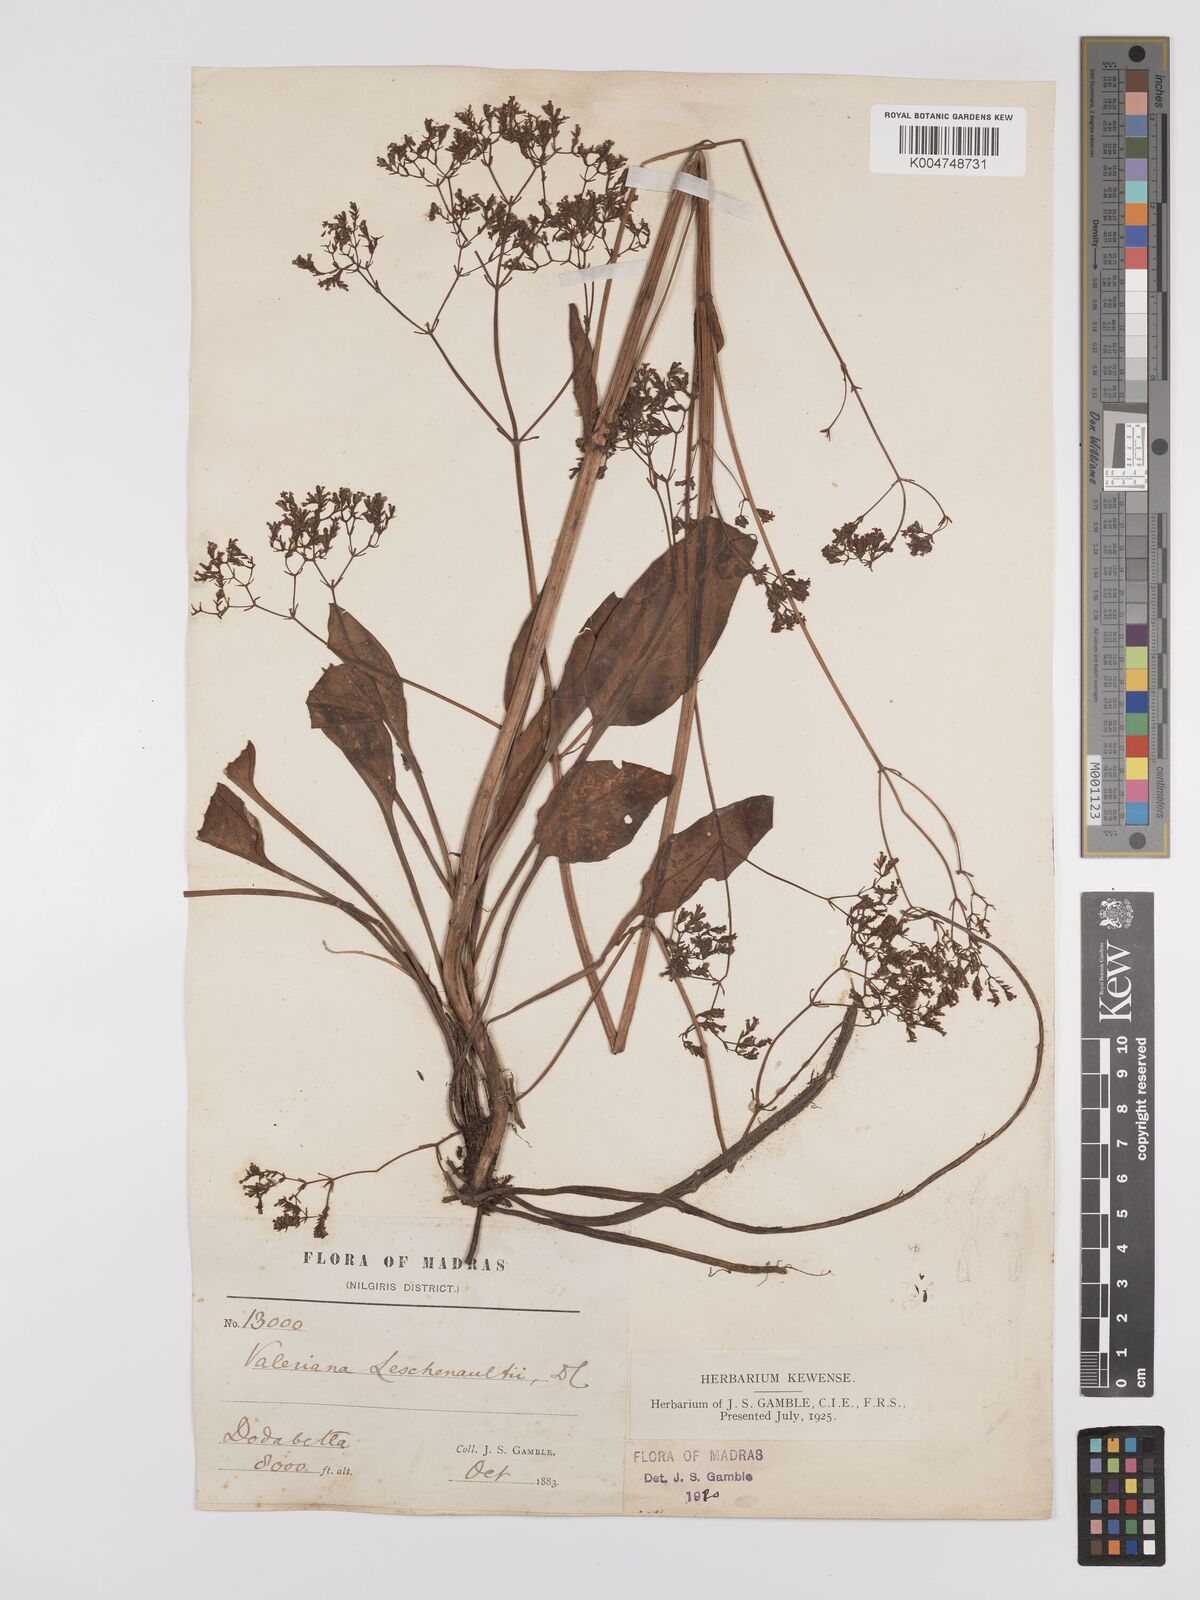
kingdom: Plantae
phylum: Tracheophyta
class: Magnoliopsida
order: Dipsacales
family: Caprifoliaceae
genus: Valeriana
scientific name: Valeriana leschenaultii
